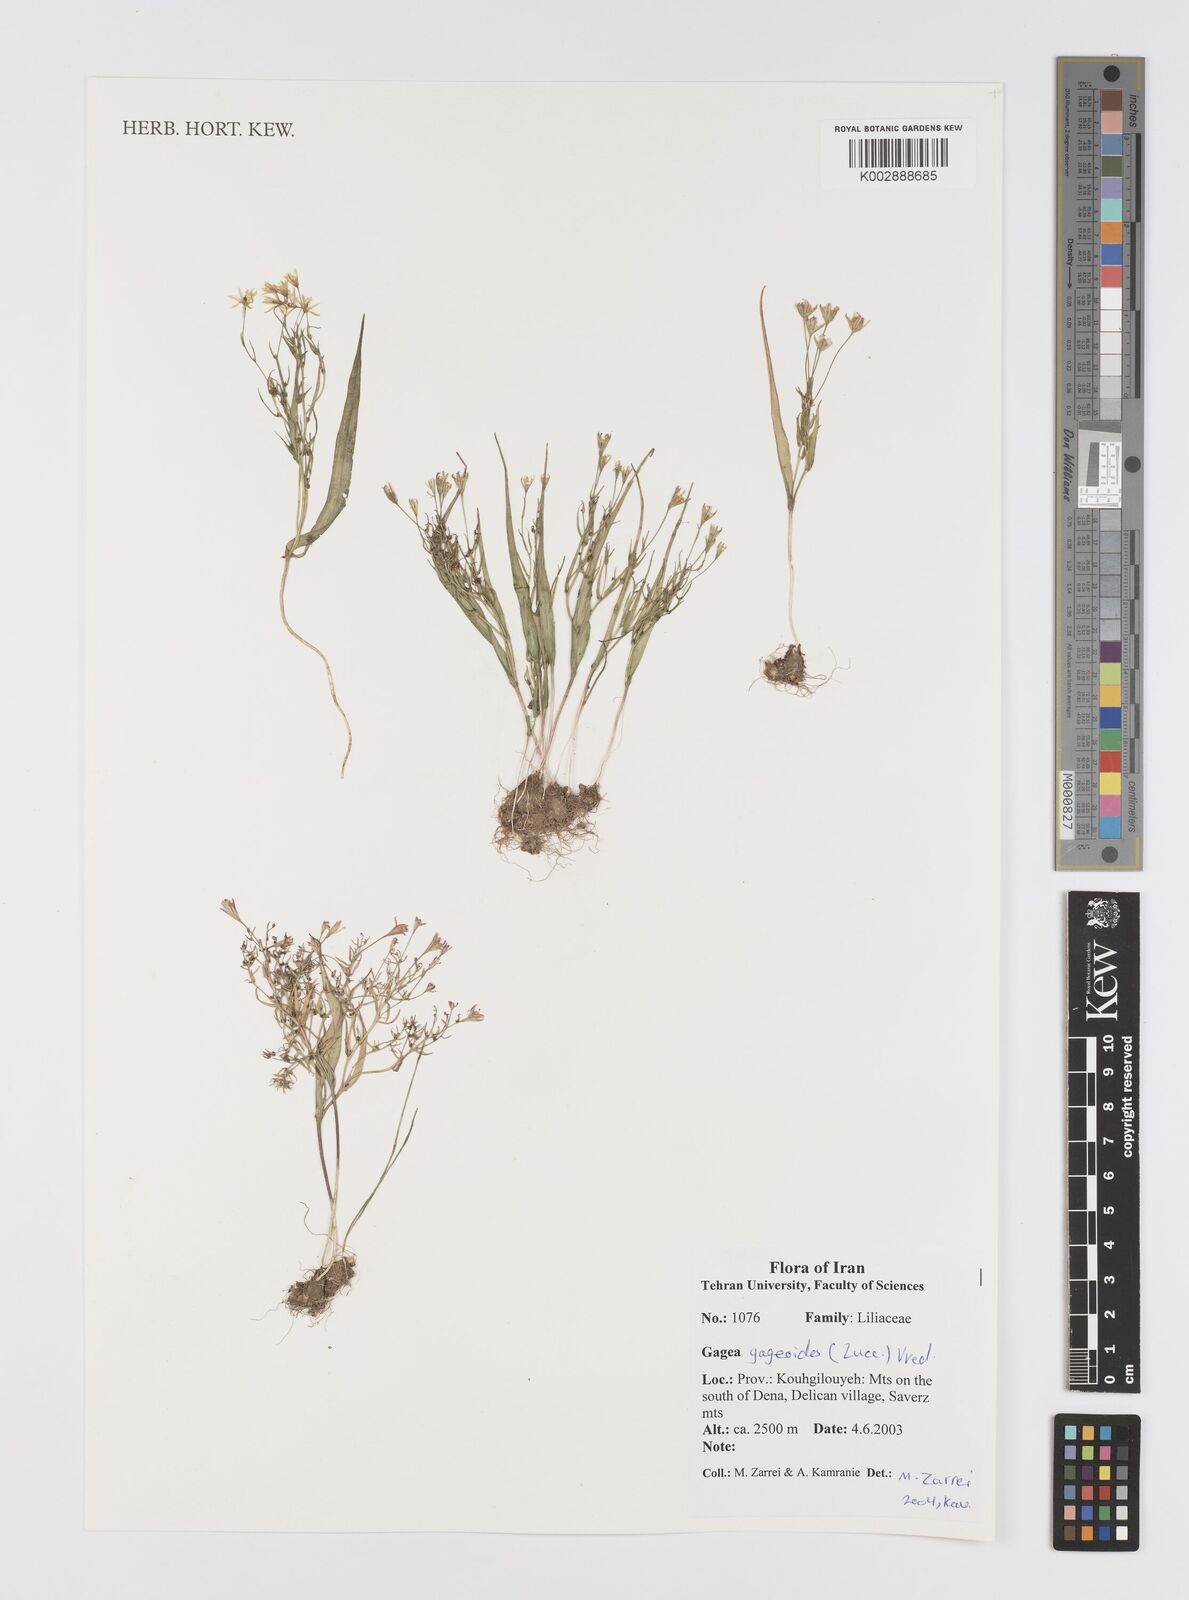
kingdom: Plantae
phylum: Tracheophyta
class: Liliopsida
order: Liliales
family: Liliaceae
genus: Gagea
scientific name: Gagea gageoides
